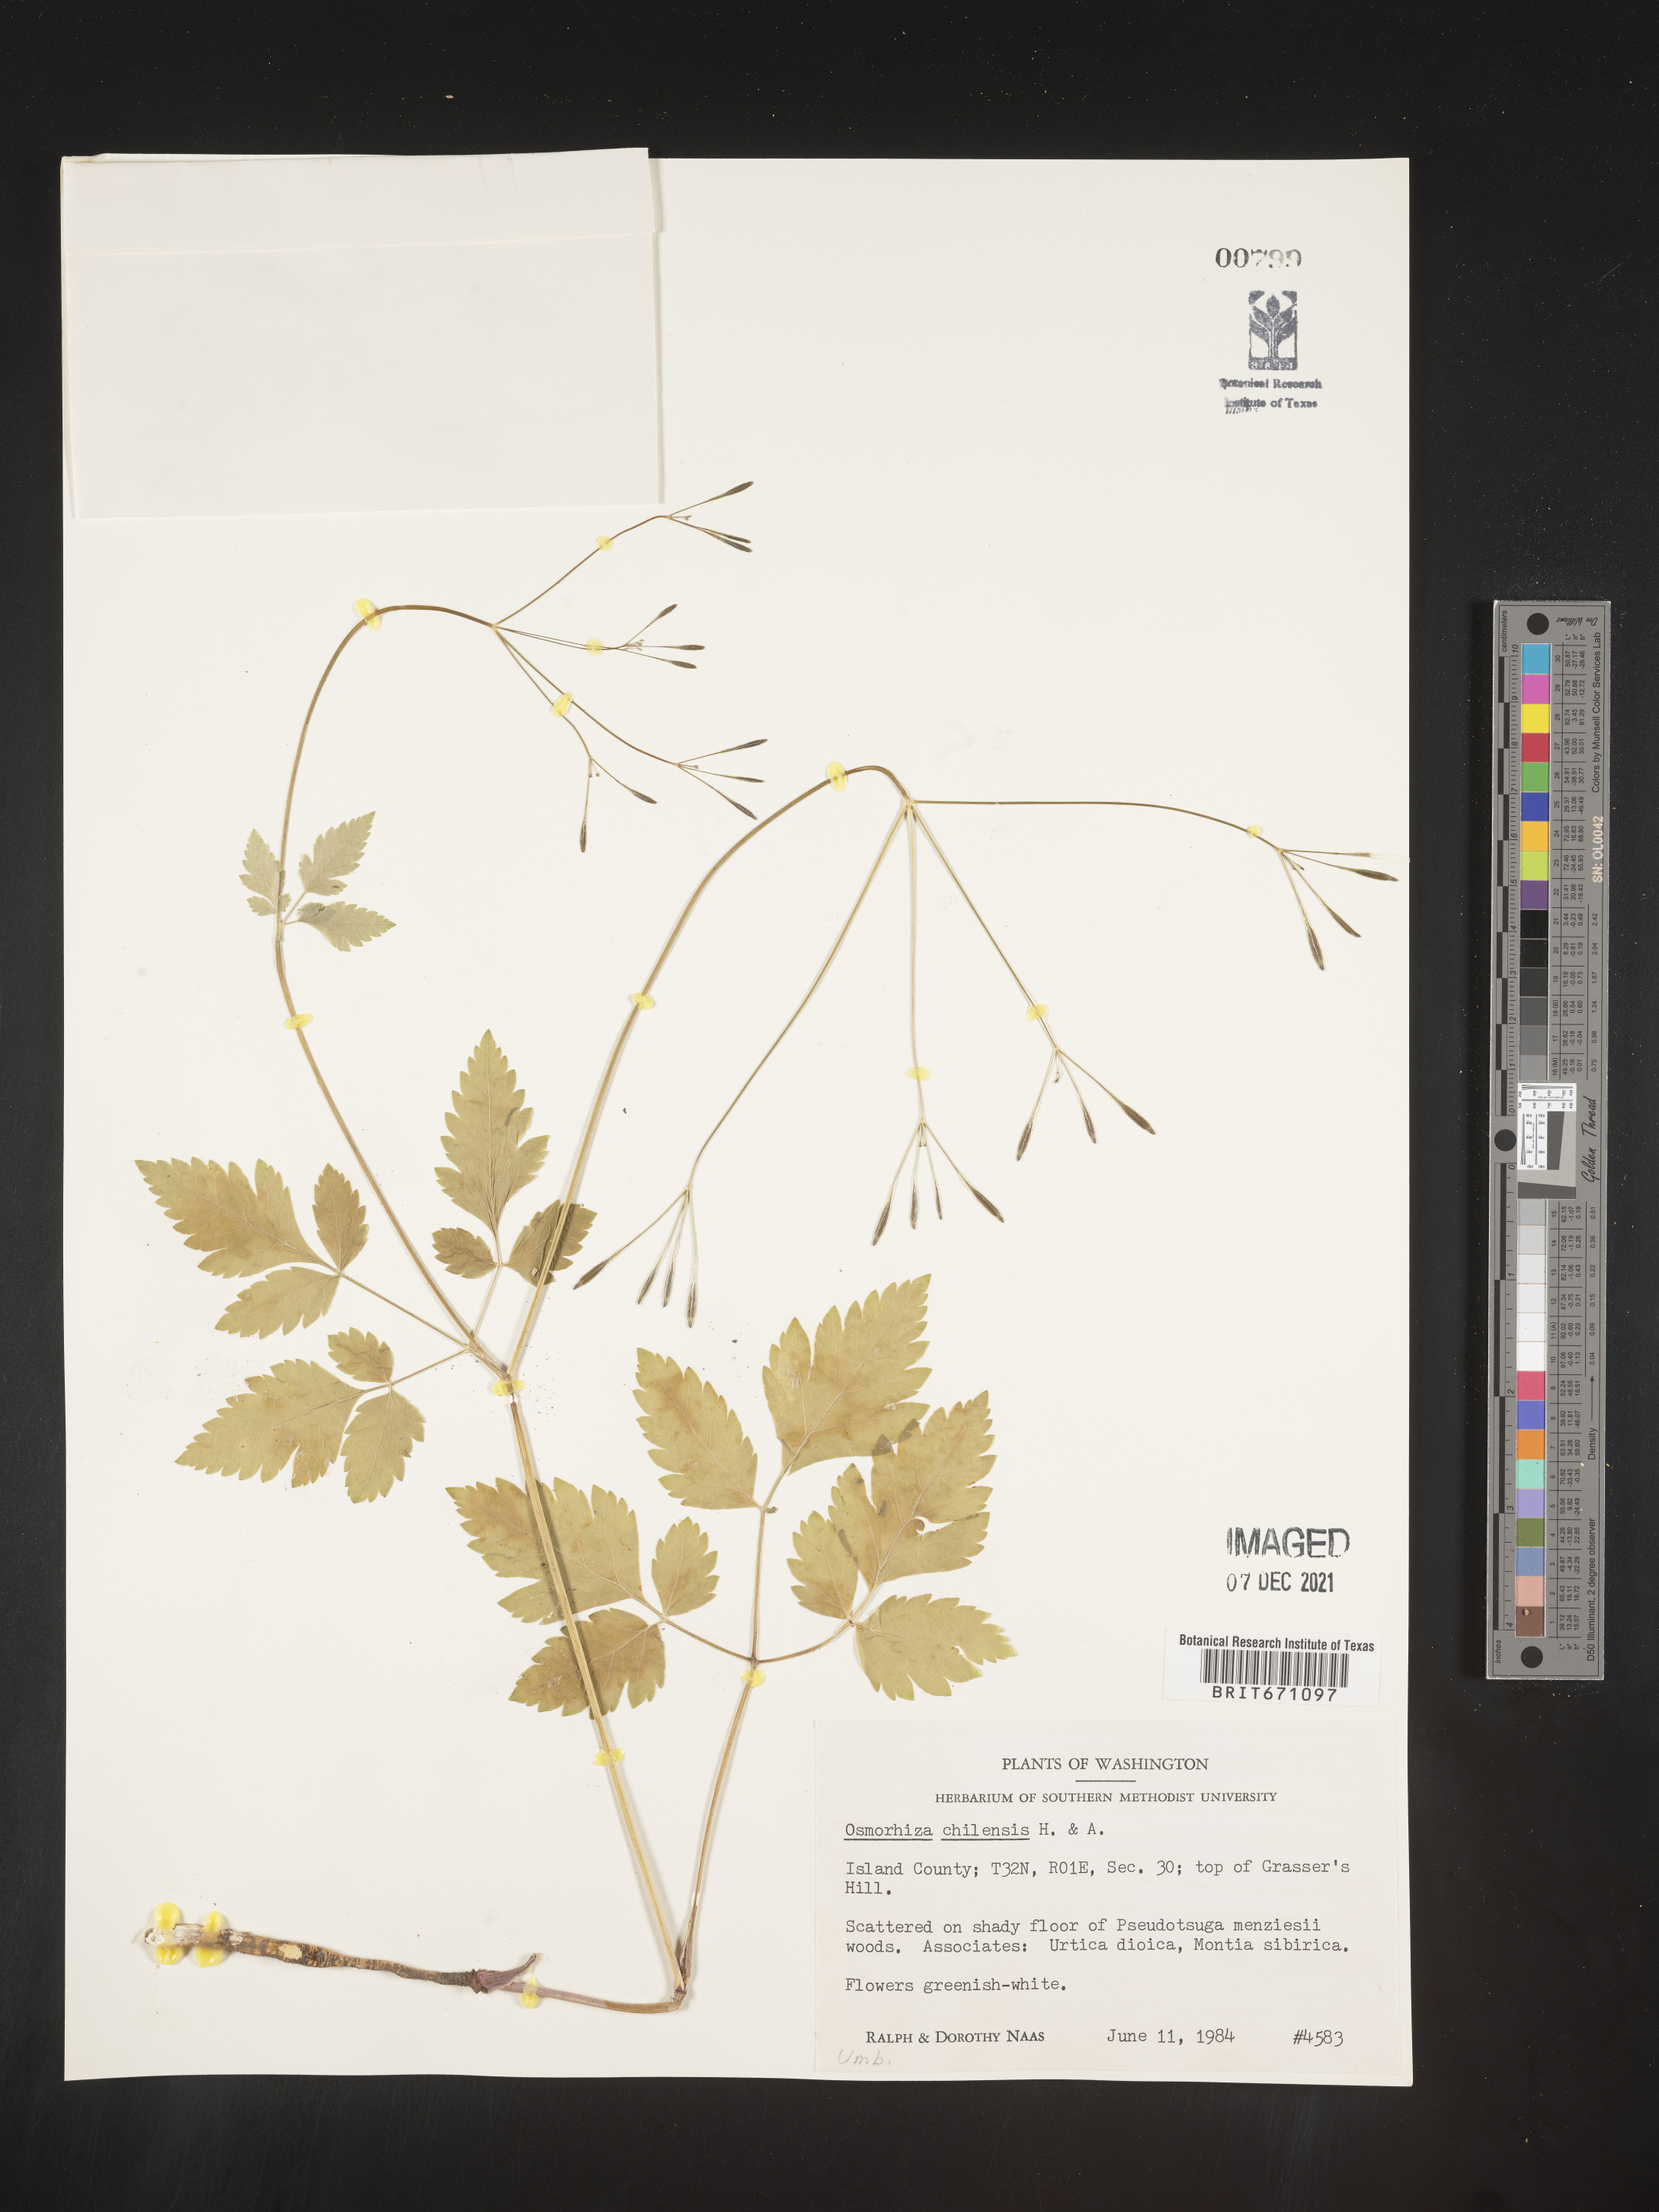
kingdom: Plantae
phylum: Tracheophyta
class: Magnoliopsida
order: Apiales
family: Apiaceae
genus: Osmorhiza
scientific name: Osmorhiza berteroi
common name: Mountain sweet cicely
